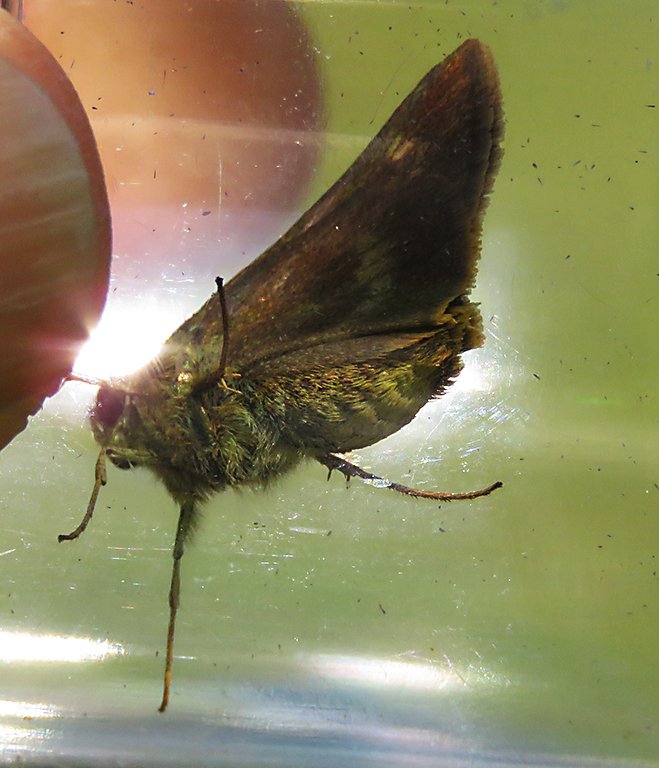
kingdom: Animalia
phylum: Arthropoda
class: Insecta
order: Lepidoptera
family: Hesperiidae
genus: Polites
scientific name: Polites egeremet
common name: Northern Broken-Dash
